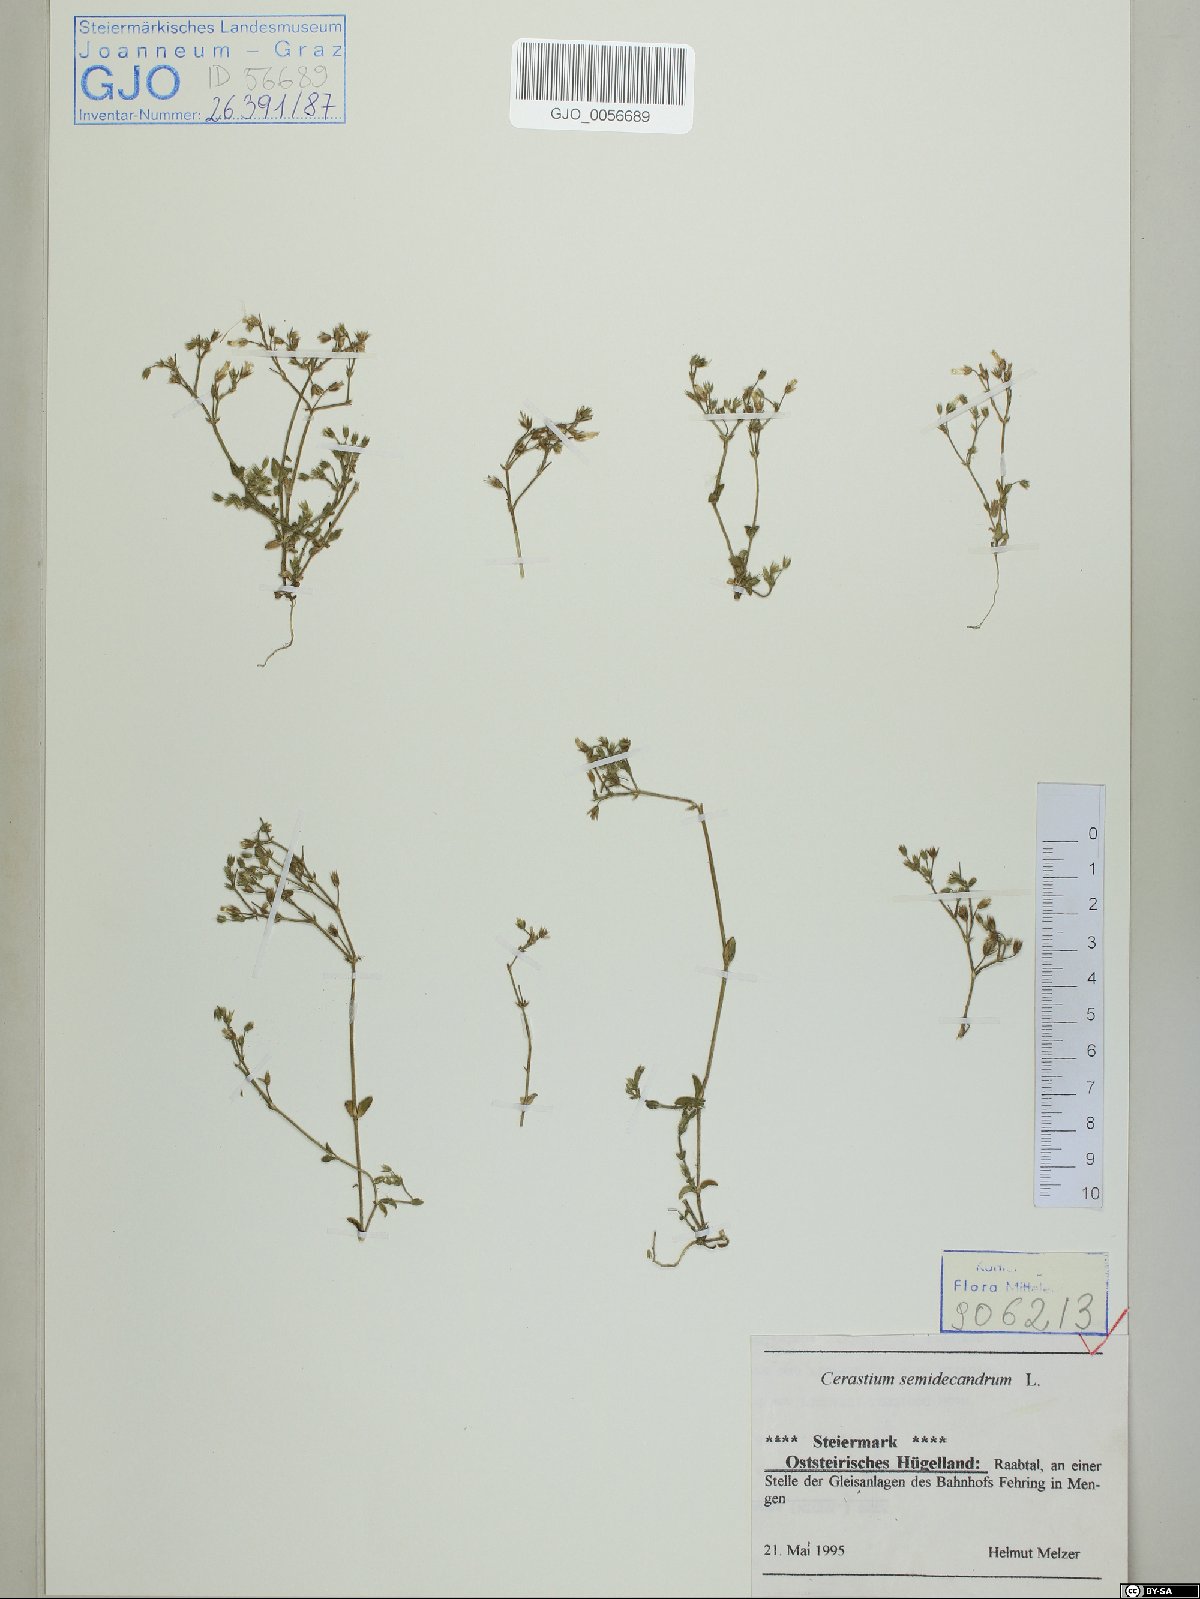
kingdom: Plantae
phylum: Tracheophyta
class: Magnoliopsida
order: Caryophyllales
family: Caryophyllaceae
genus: Cerastium
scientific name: Cerastium semidecandrum
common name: Little mouse-ear
